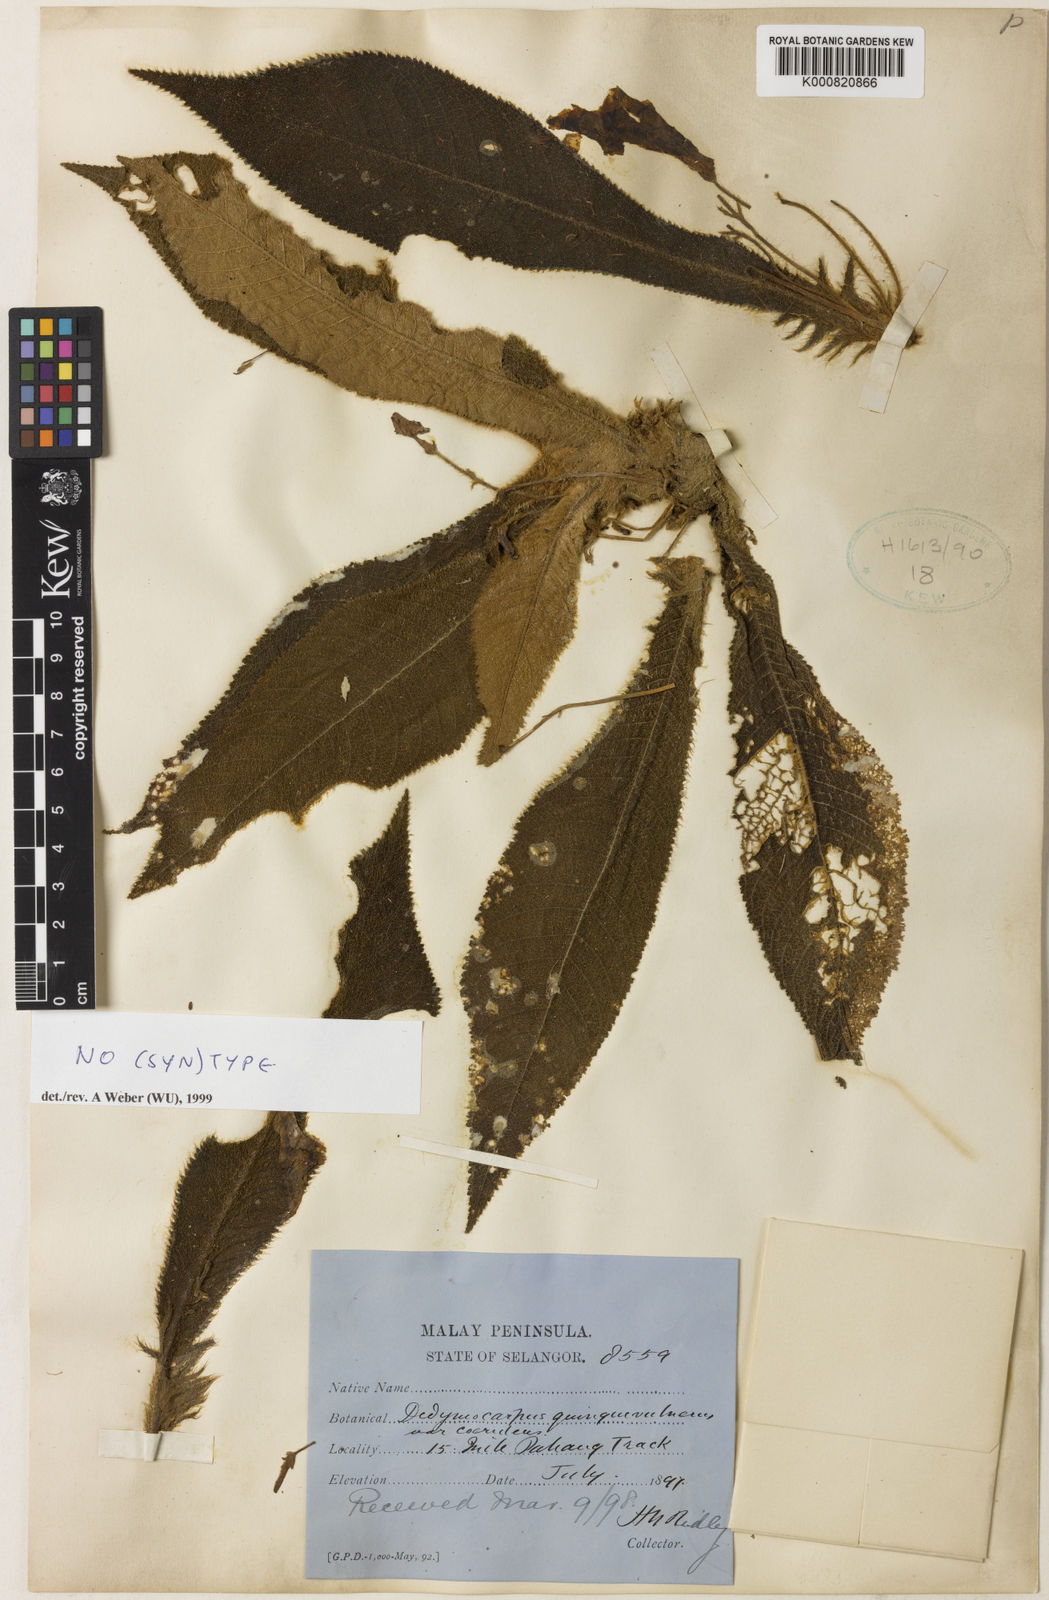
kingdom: Plantae
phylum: Tracheophyta
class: Magnoliopsida
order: Lamiales
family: Gesneriaceae
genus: Codonoboea
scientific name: Codonoboea quinquevulnera
